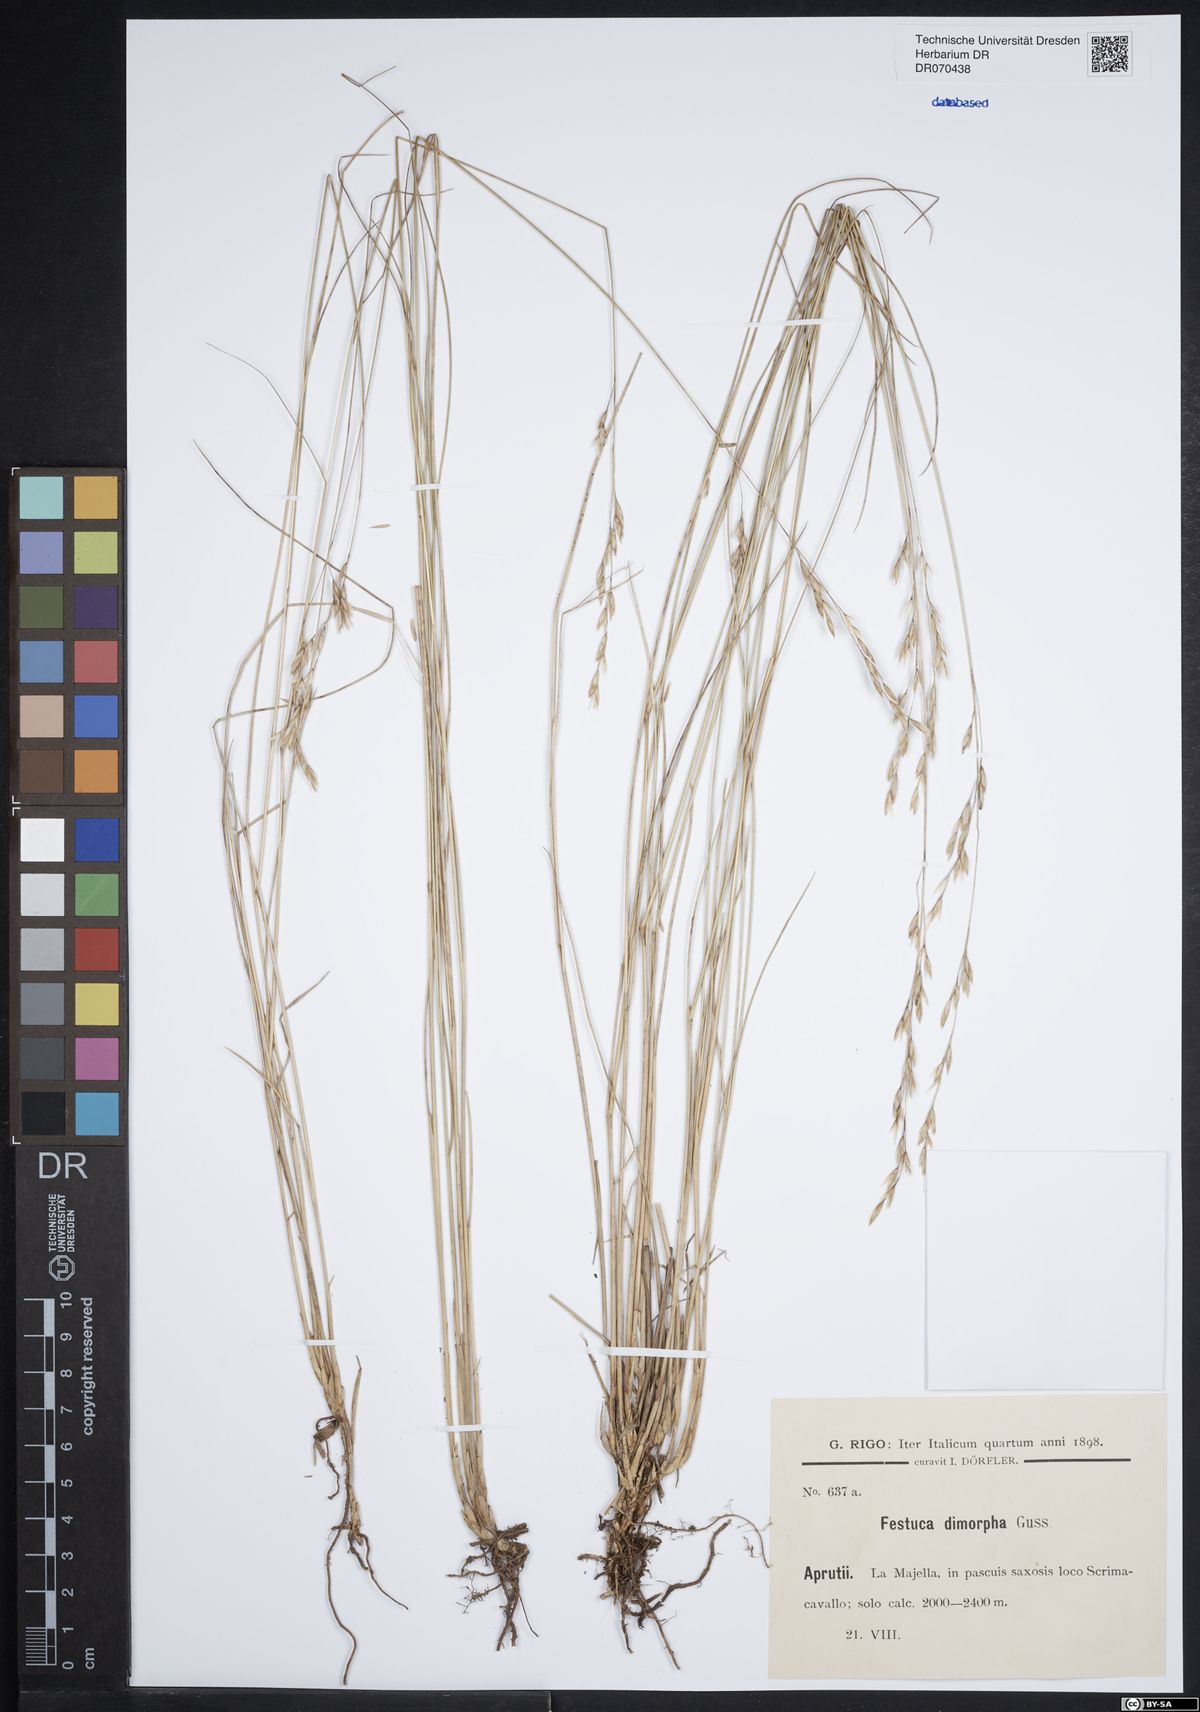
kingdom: Plantae
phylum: Tracheophyta
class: Liliopsida
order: Poales
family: Poaceae
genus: Festuca
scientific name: Festuca dimorpha
